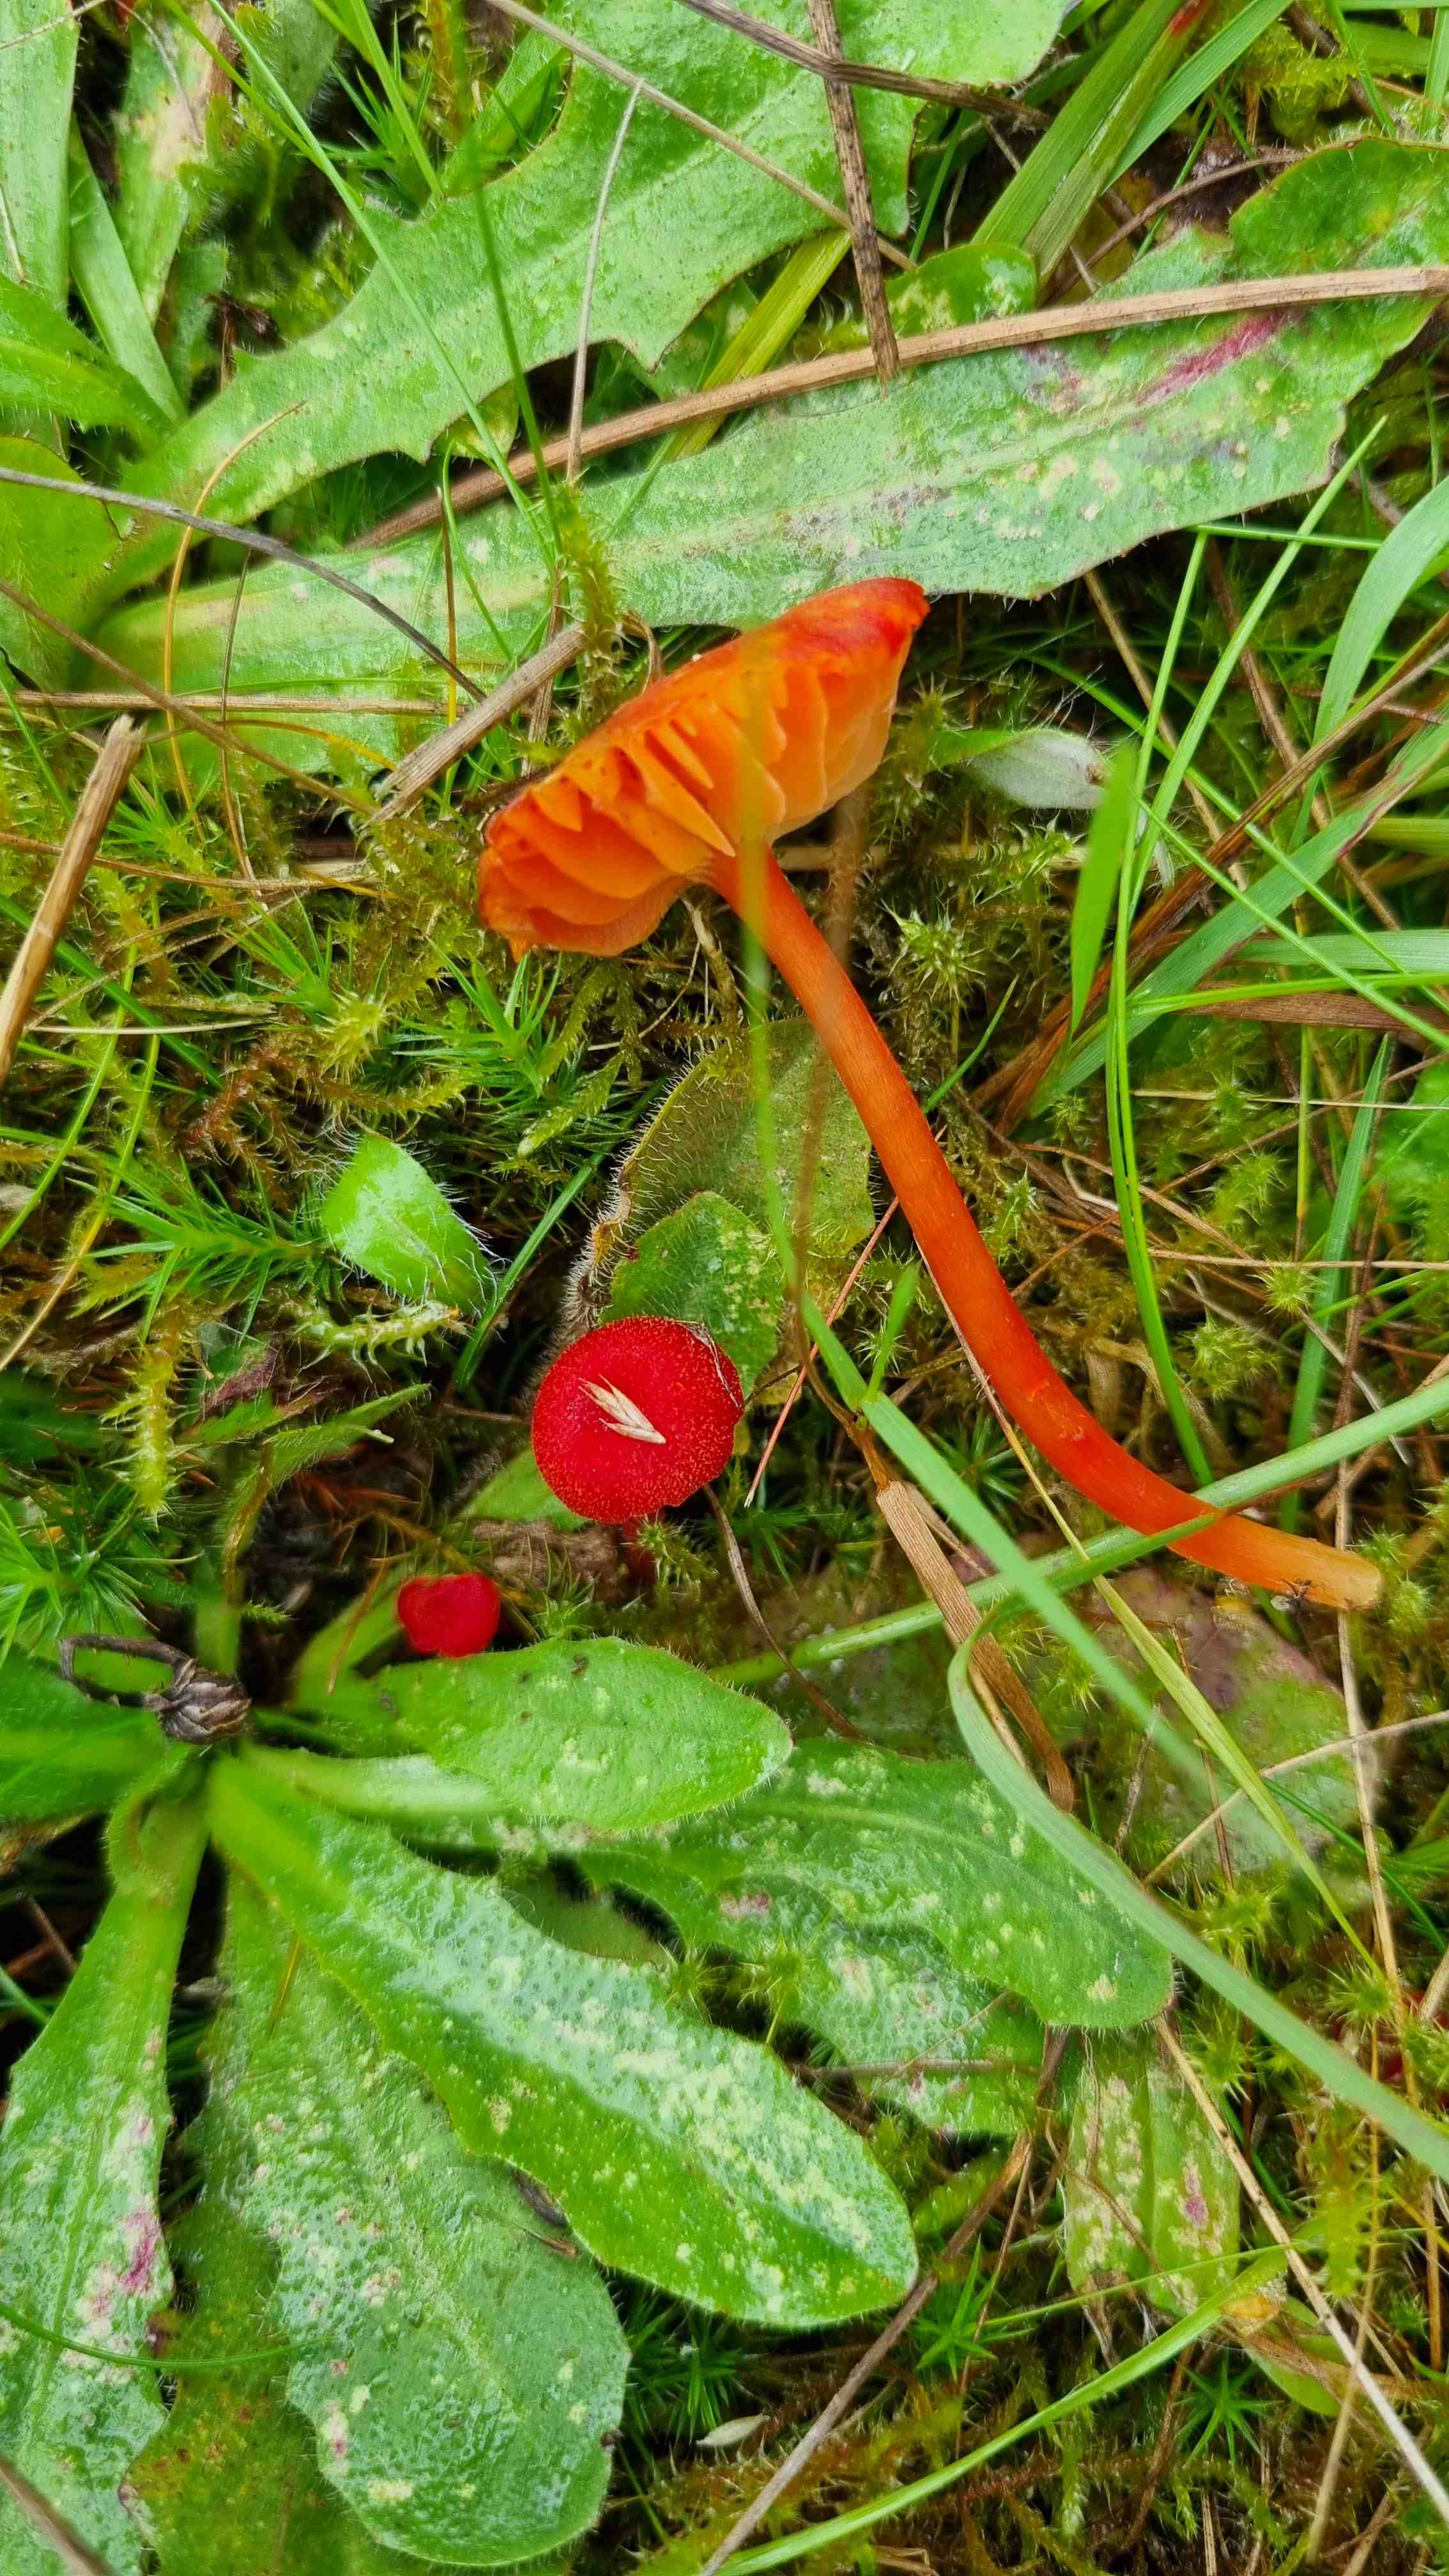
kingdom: Fungi
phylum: Basidiomycota
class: Agaricomycetes
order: Agaricales
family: Hygrophoraceae
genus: Hygrocybe
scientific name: Hygrocybe helobia
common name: hvidløgs-vokshat
